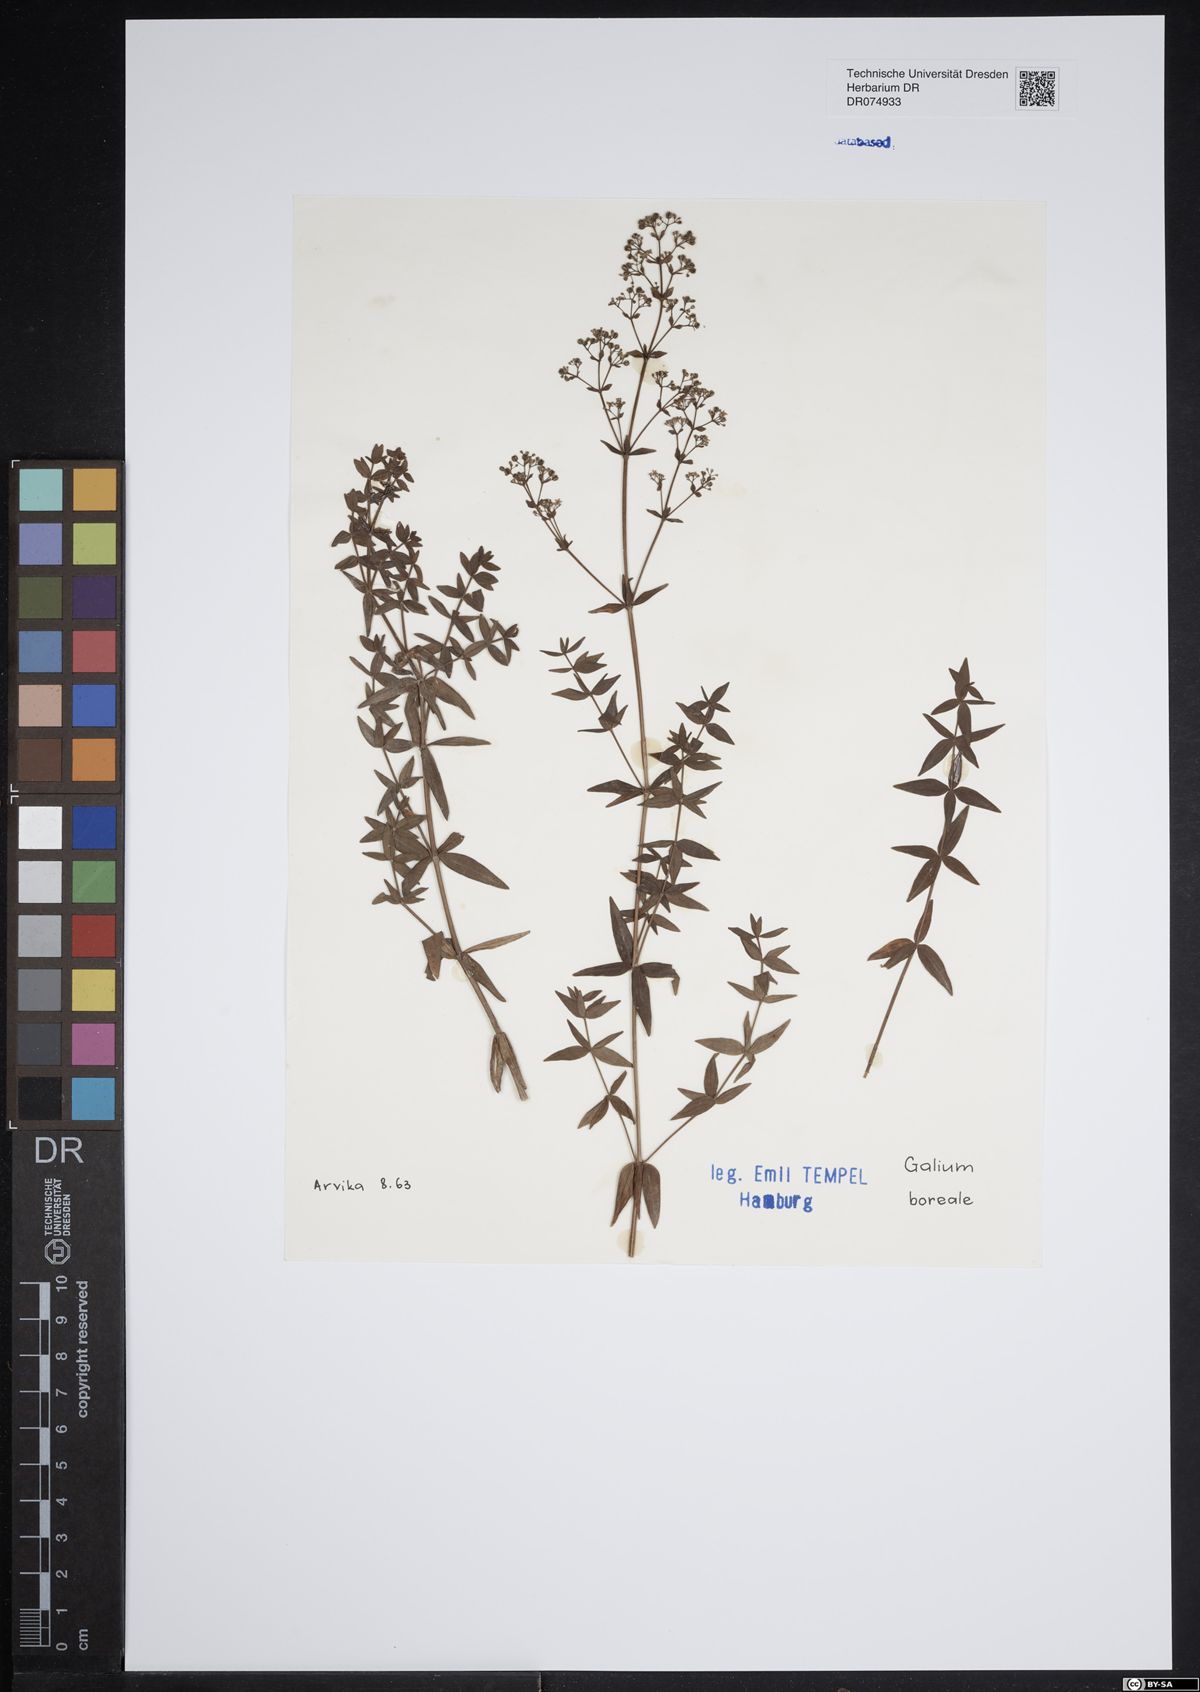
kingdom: Plantae
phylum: Tracheophyta
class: Magnoliopsida
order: Gentianales
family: Rubiaceae
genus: Galium
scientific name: Galium boreale
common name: Northern bedstraw
